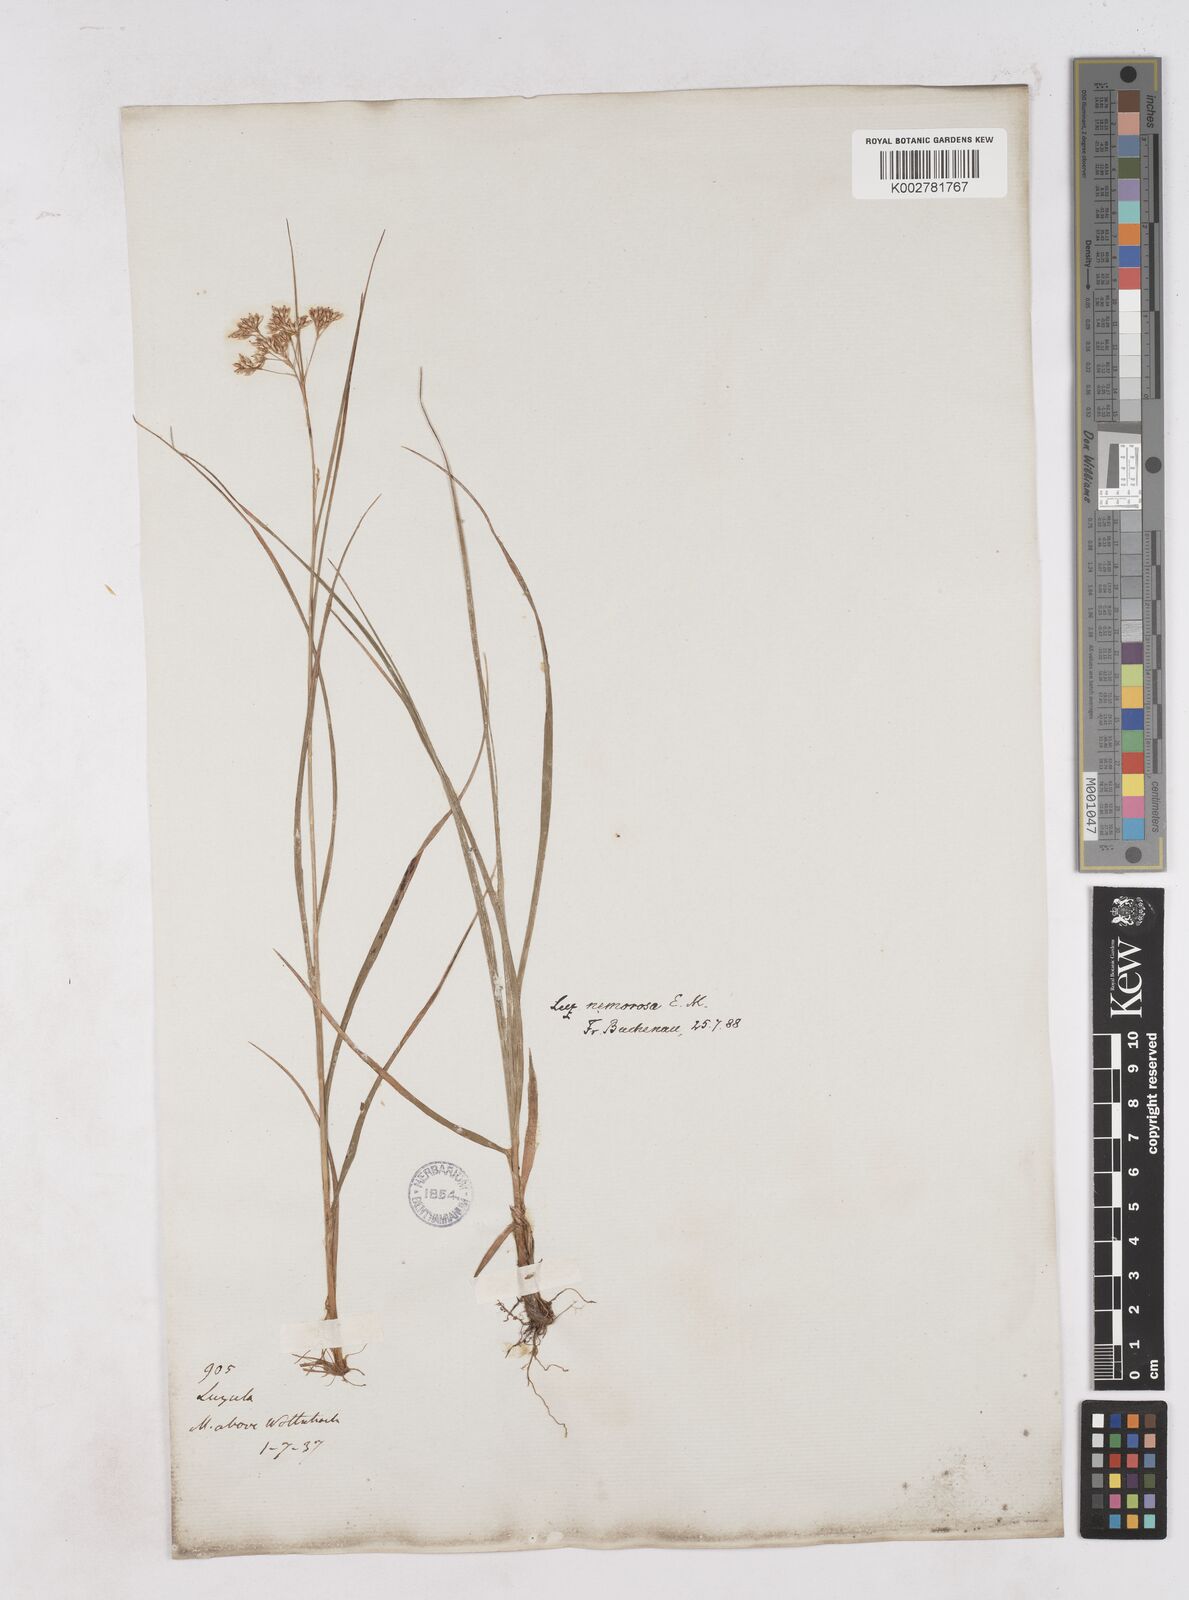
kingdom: Plantae
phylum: Tracheophyta
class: Liliopsida
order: Poales
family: Juncaceae
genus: Luzula
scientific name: Luzula luzuloides
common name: White wood-rush
